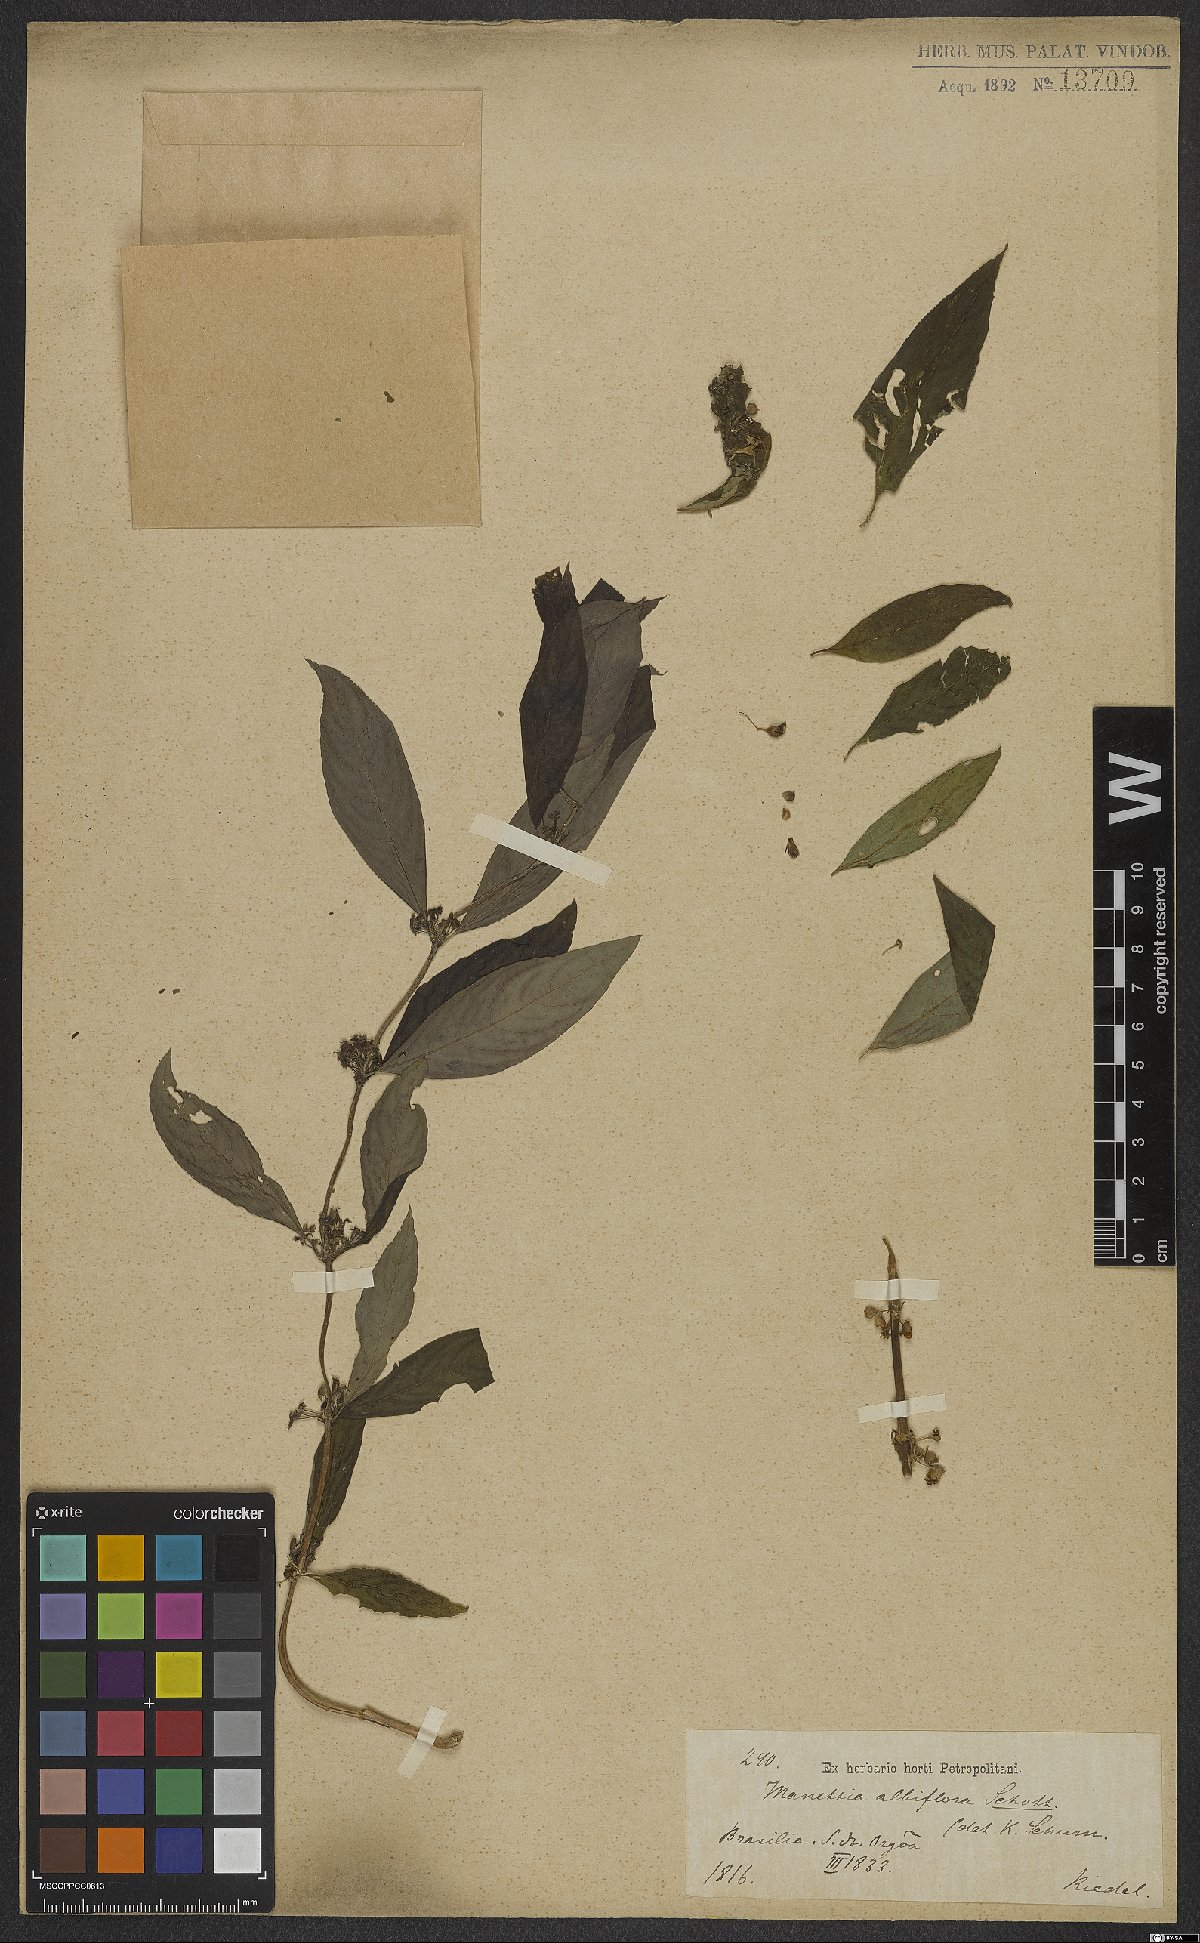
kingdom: Plantae
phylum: Tracheophyta
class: Magnoliopsida
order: Gentianales
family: Rubiaceae
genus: Manettia
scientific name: Manettia congesta
